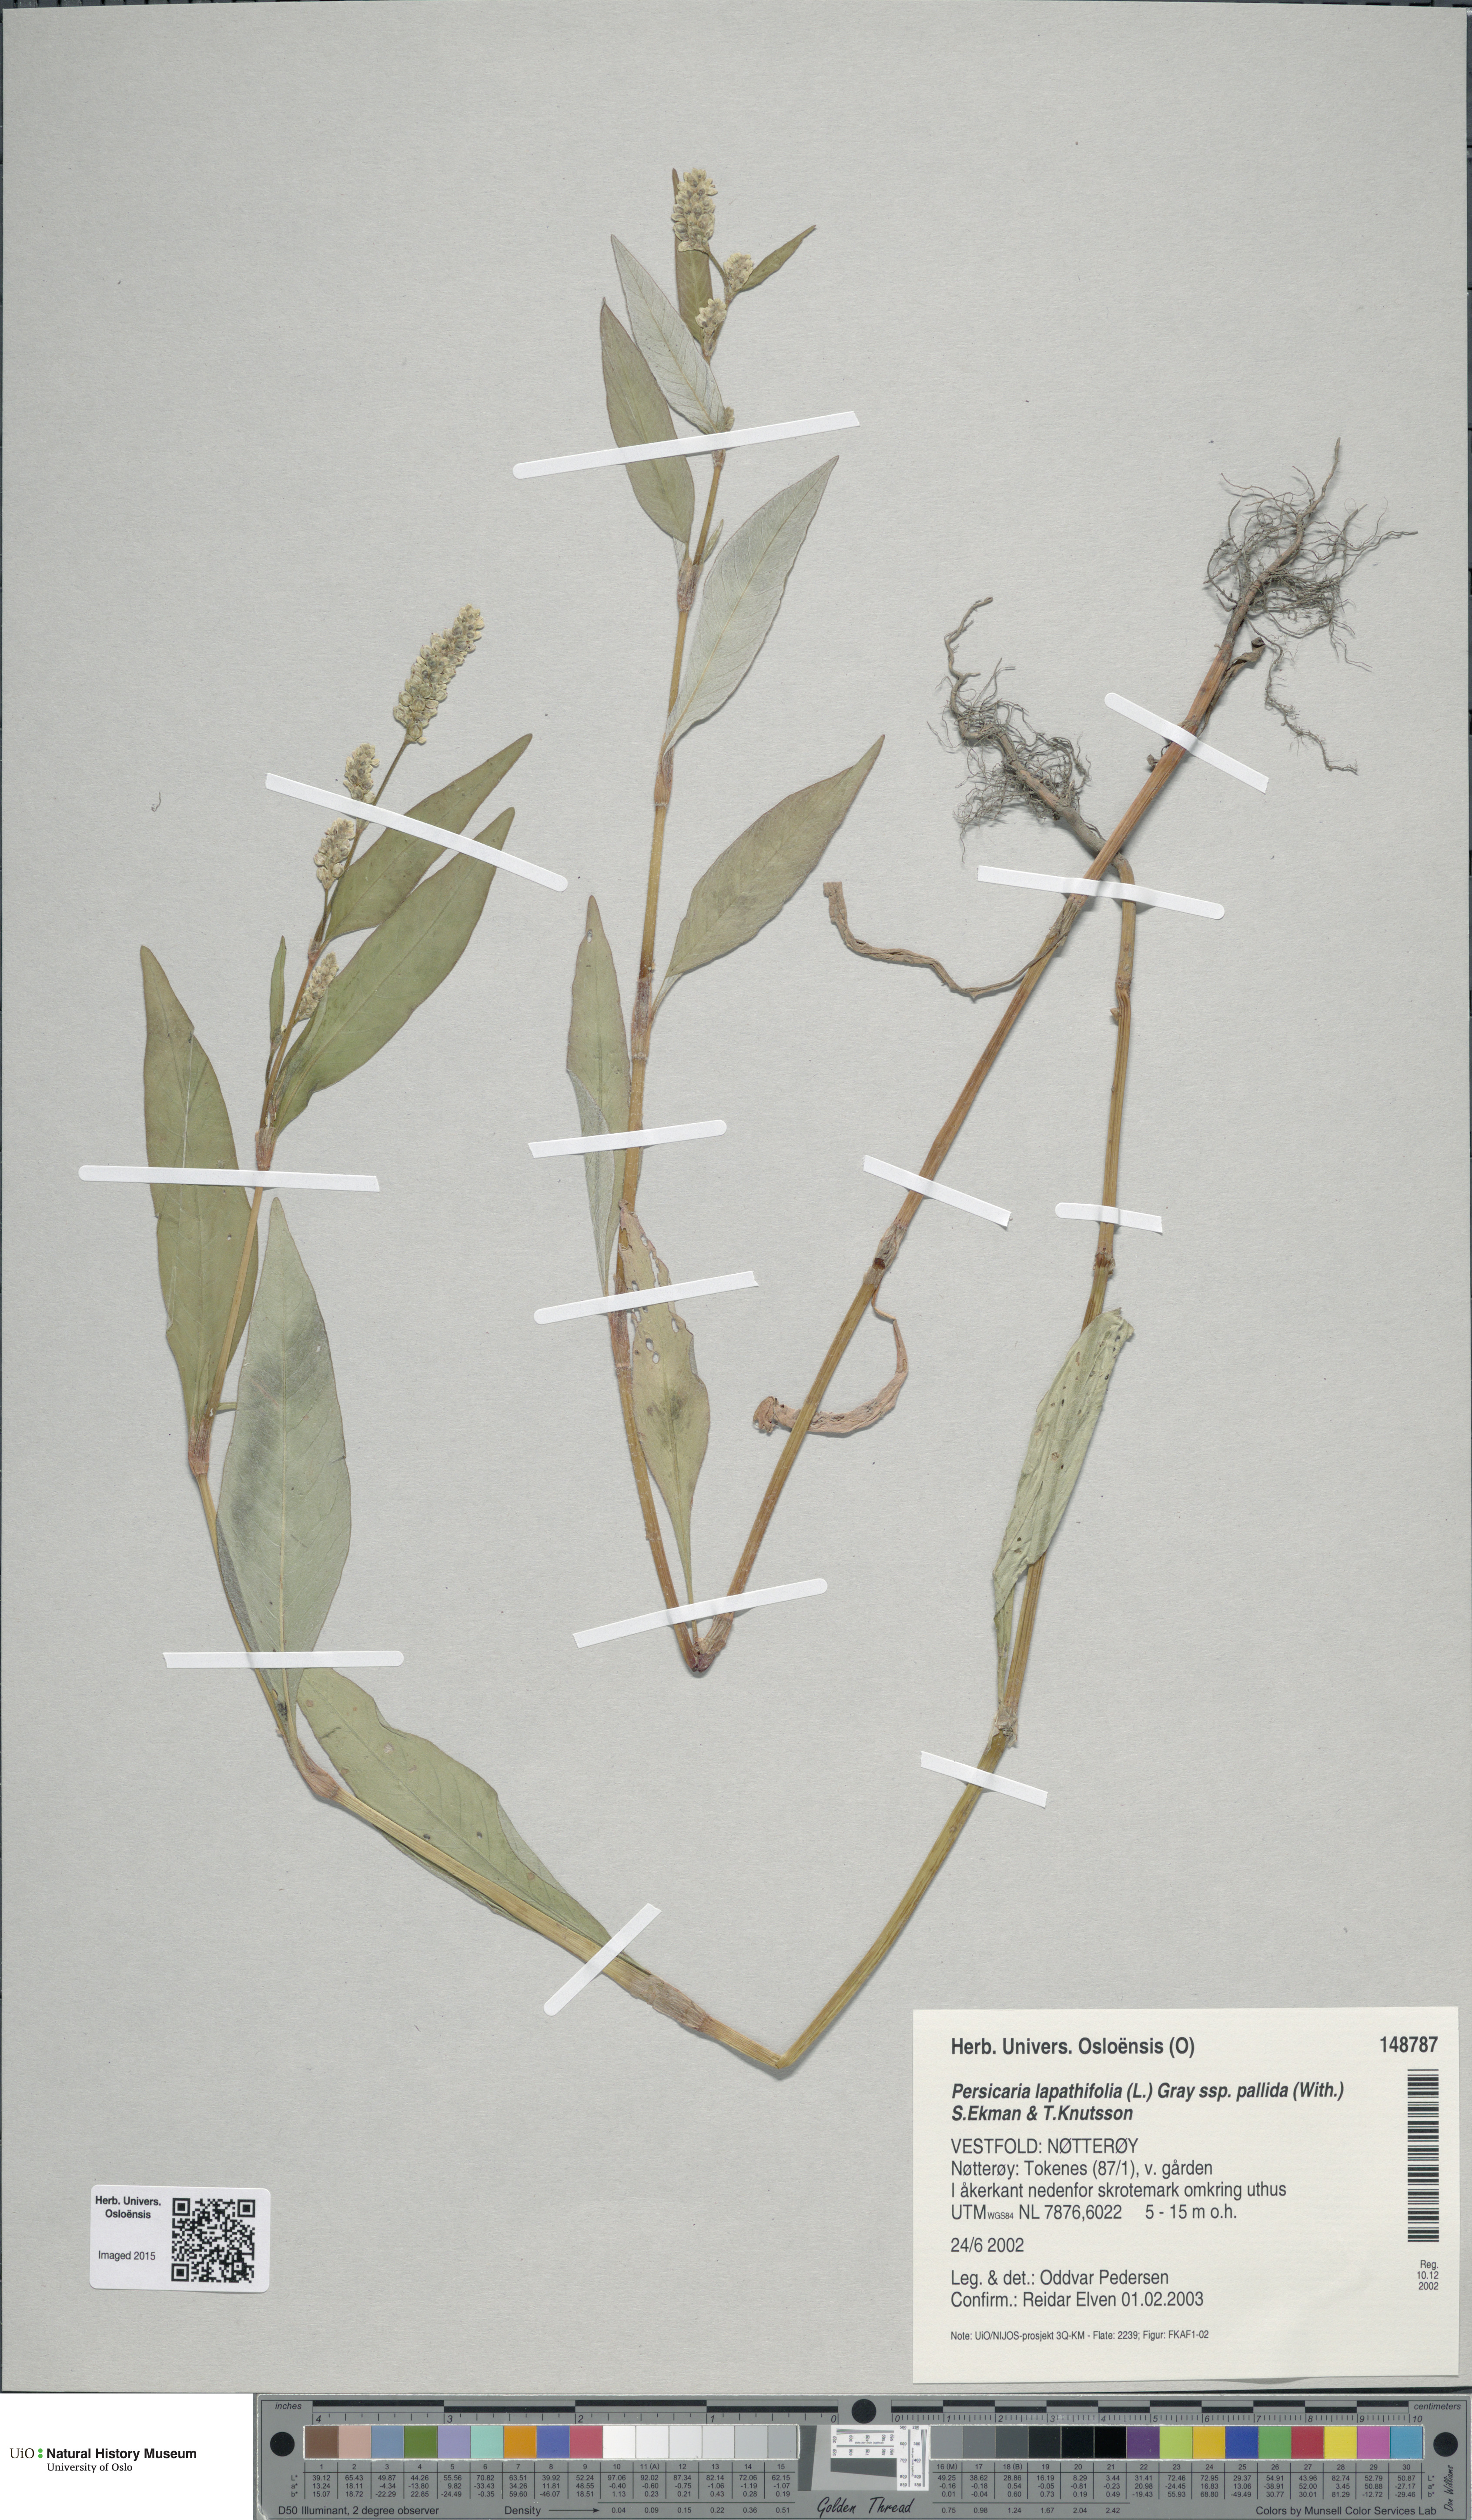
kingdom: Plantae
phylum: Tracheophyta
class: Magnoliopsida
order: Caryophyllales
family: Polygonaceae
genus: Persicaria
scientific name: Persicaria lapathifolia
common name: Curlytop knotweed
